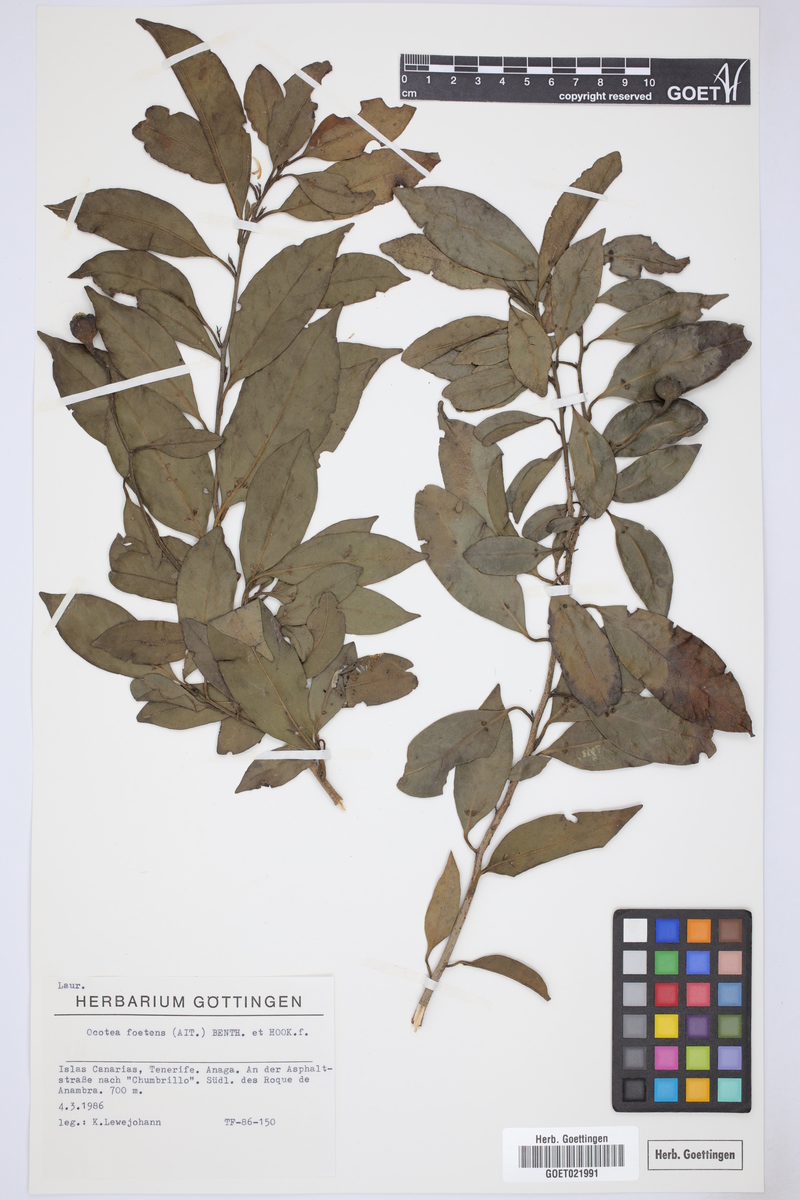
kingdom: Plantae
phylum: Tracheophyta
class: Magnoliopsida
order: Laurales
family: Lauraceae
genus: Mespilodaphne
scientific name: Mespilodaphne foetens
